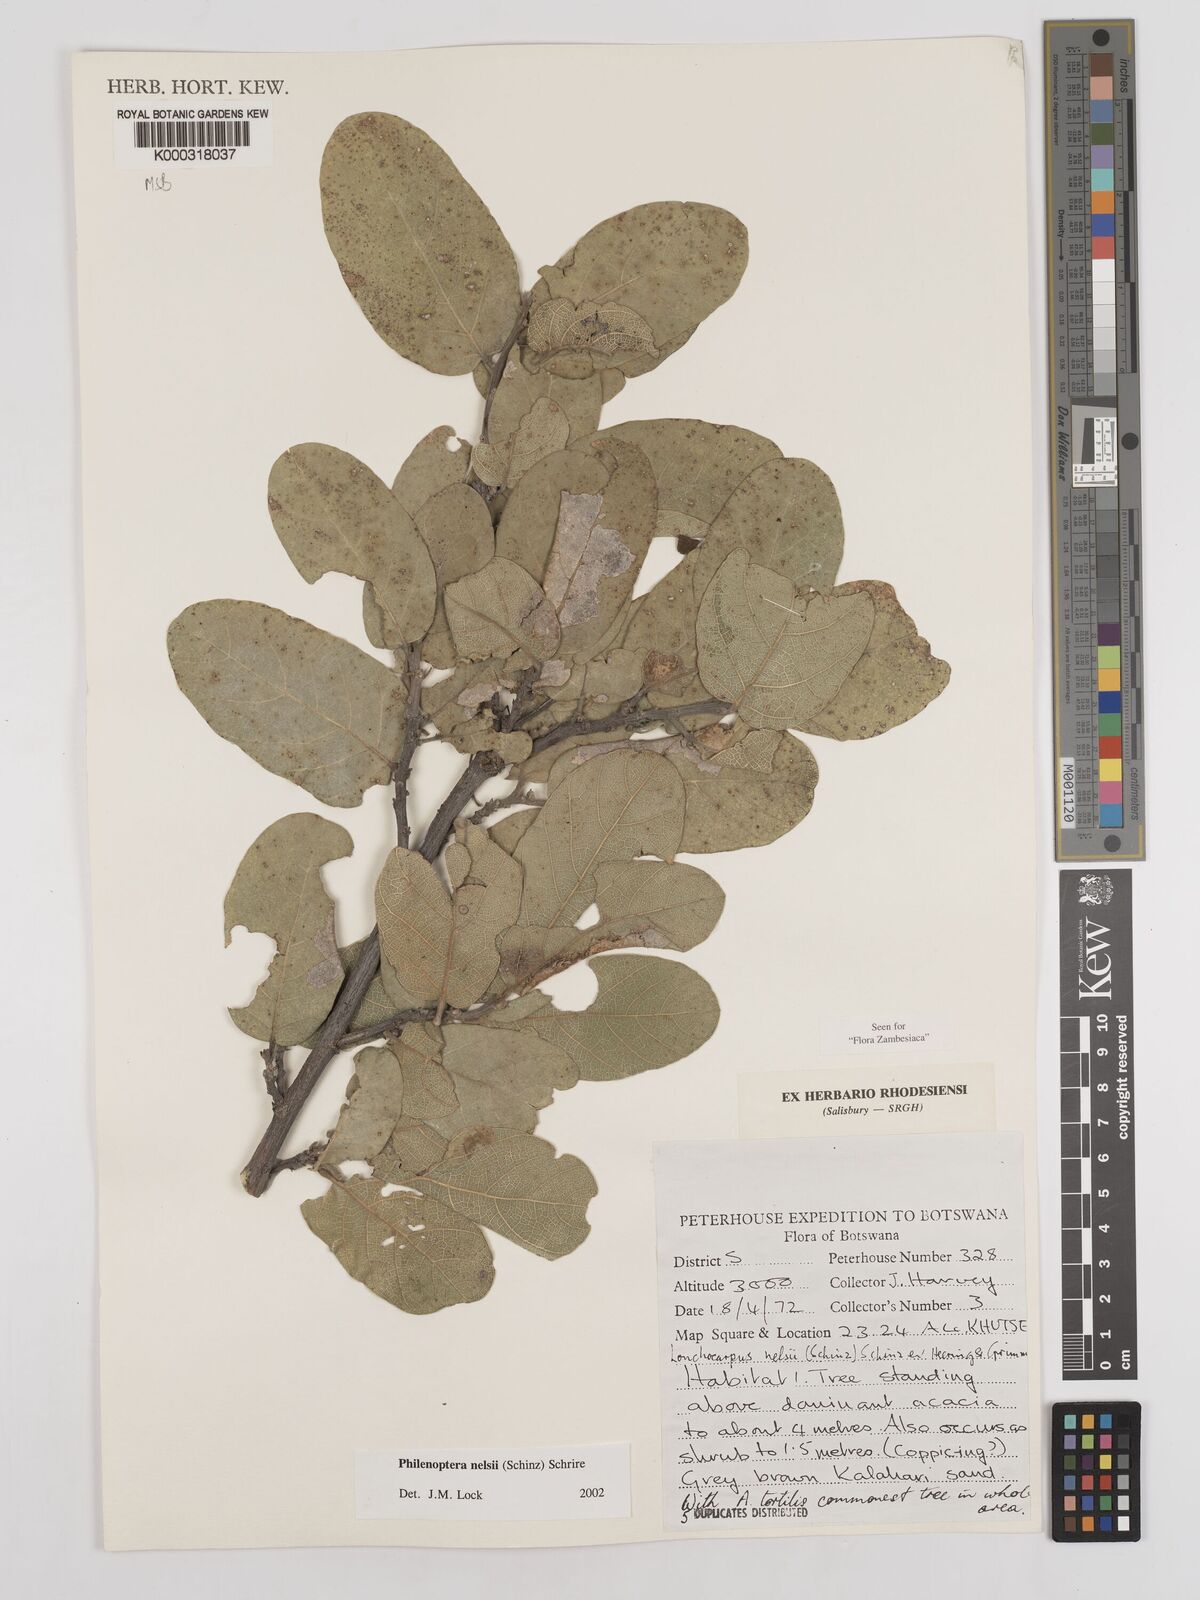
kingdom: Plantae
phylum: Tracheophyta
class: Magnoliopsida
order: Fabales
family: Fabaceae
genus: Philenoptera
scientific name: Philenoptera nelsii
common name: Kalahari apple-leaf
